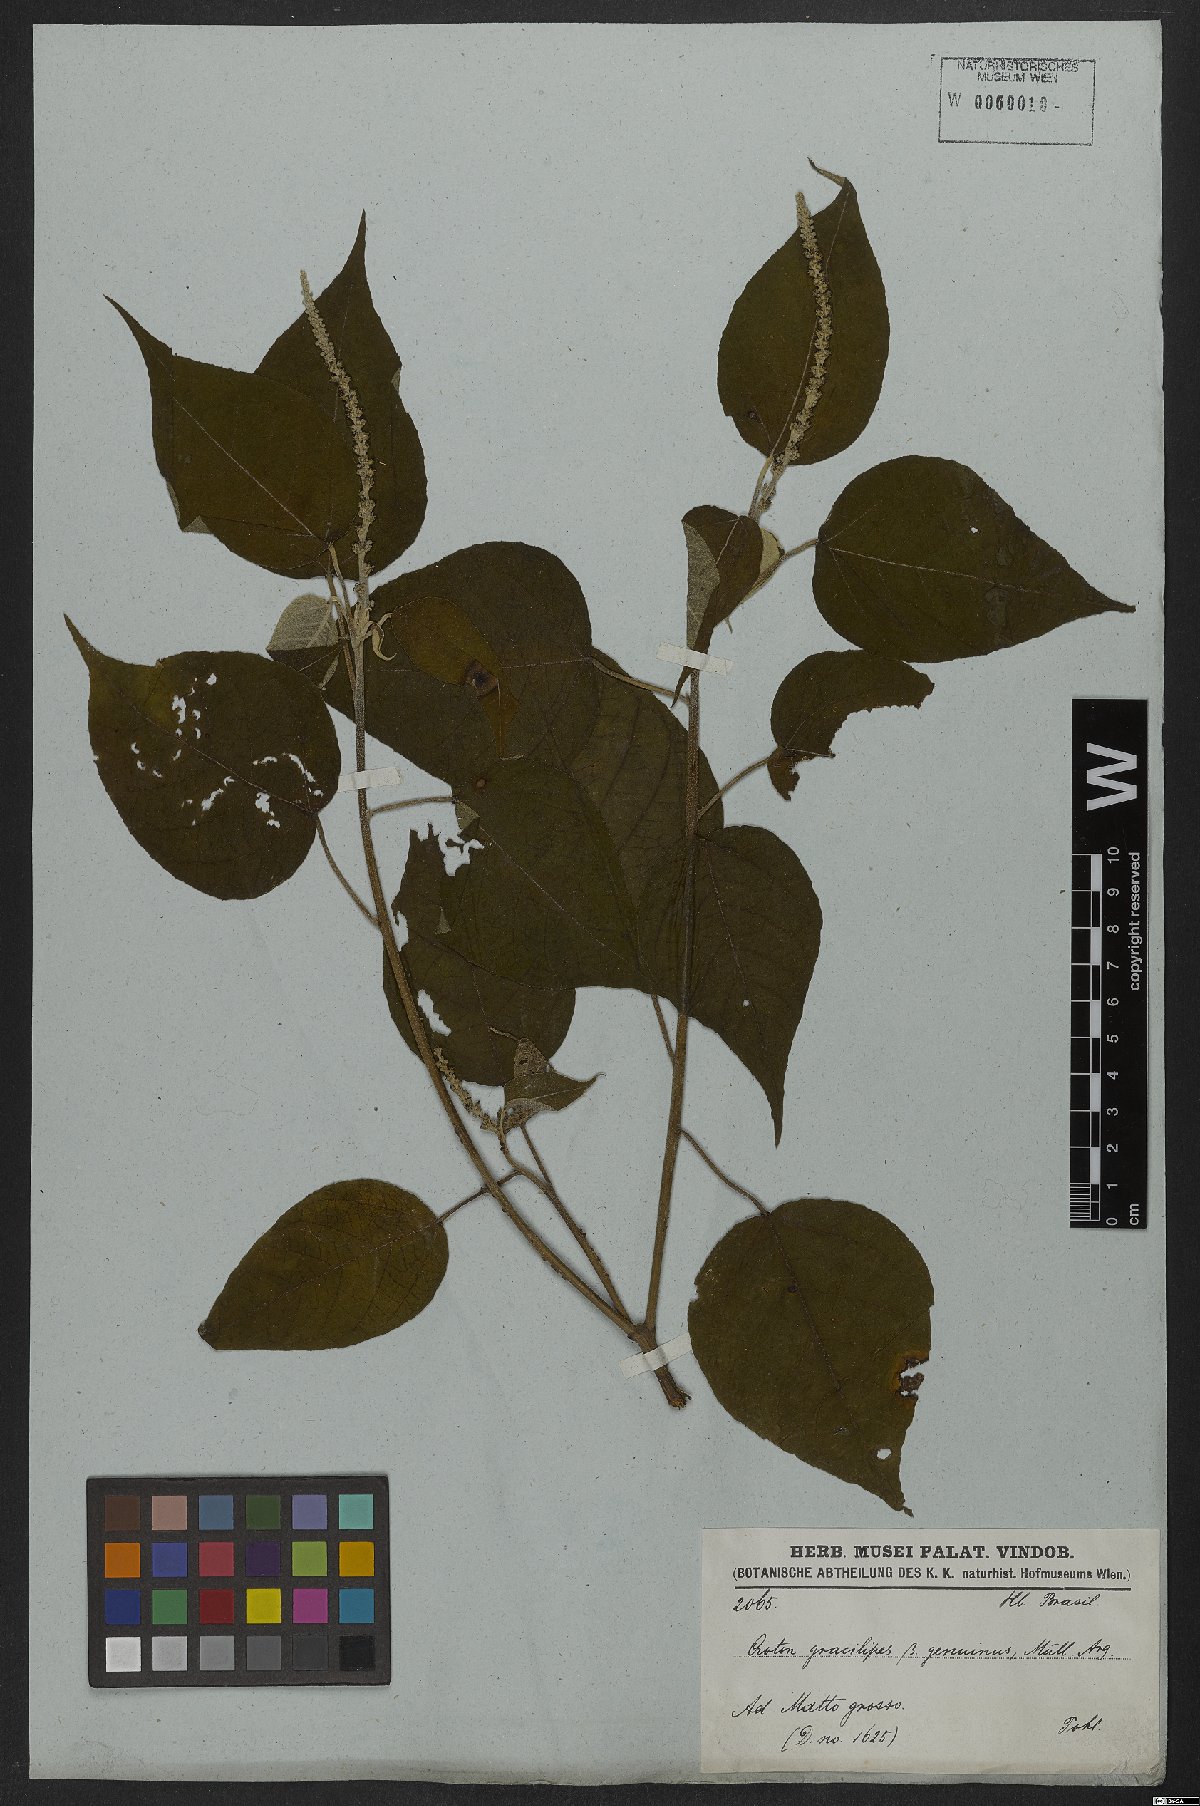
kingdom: Plantae
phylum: Tracheophyta
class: Magnoliopsida
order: Malpighiales
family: Euphorbiaceae
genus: Croton
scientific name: Croton gracilipes
